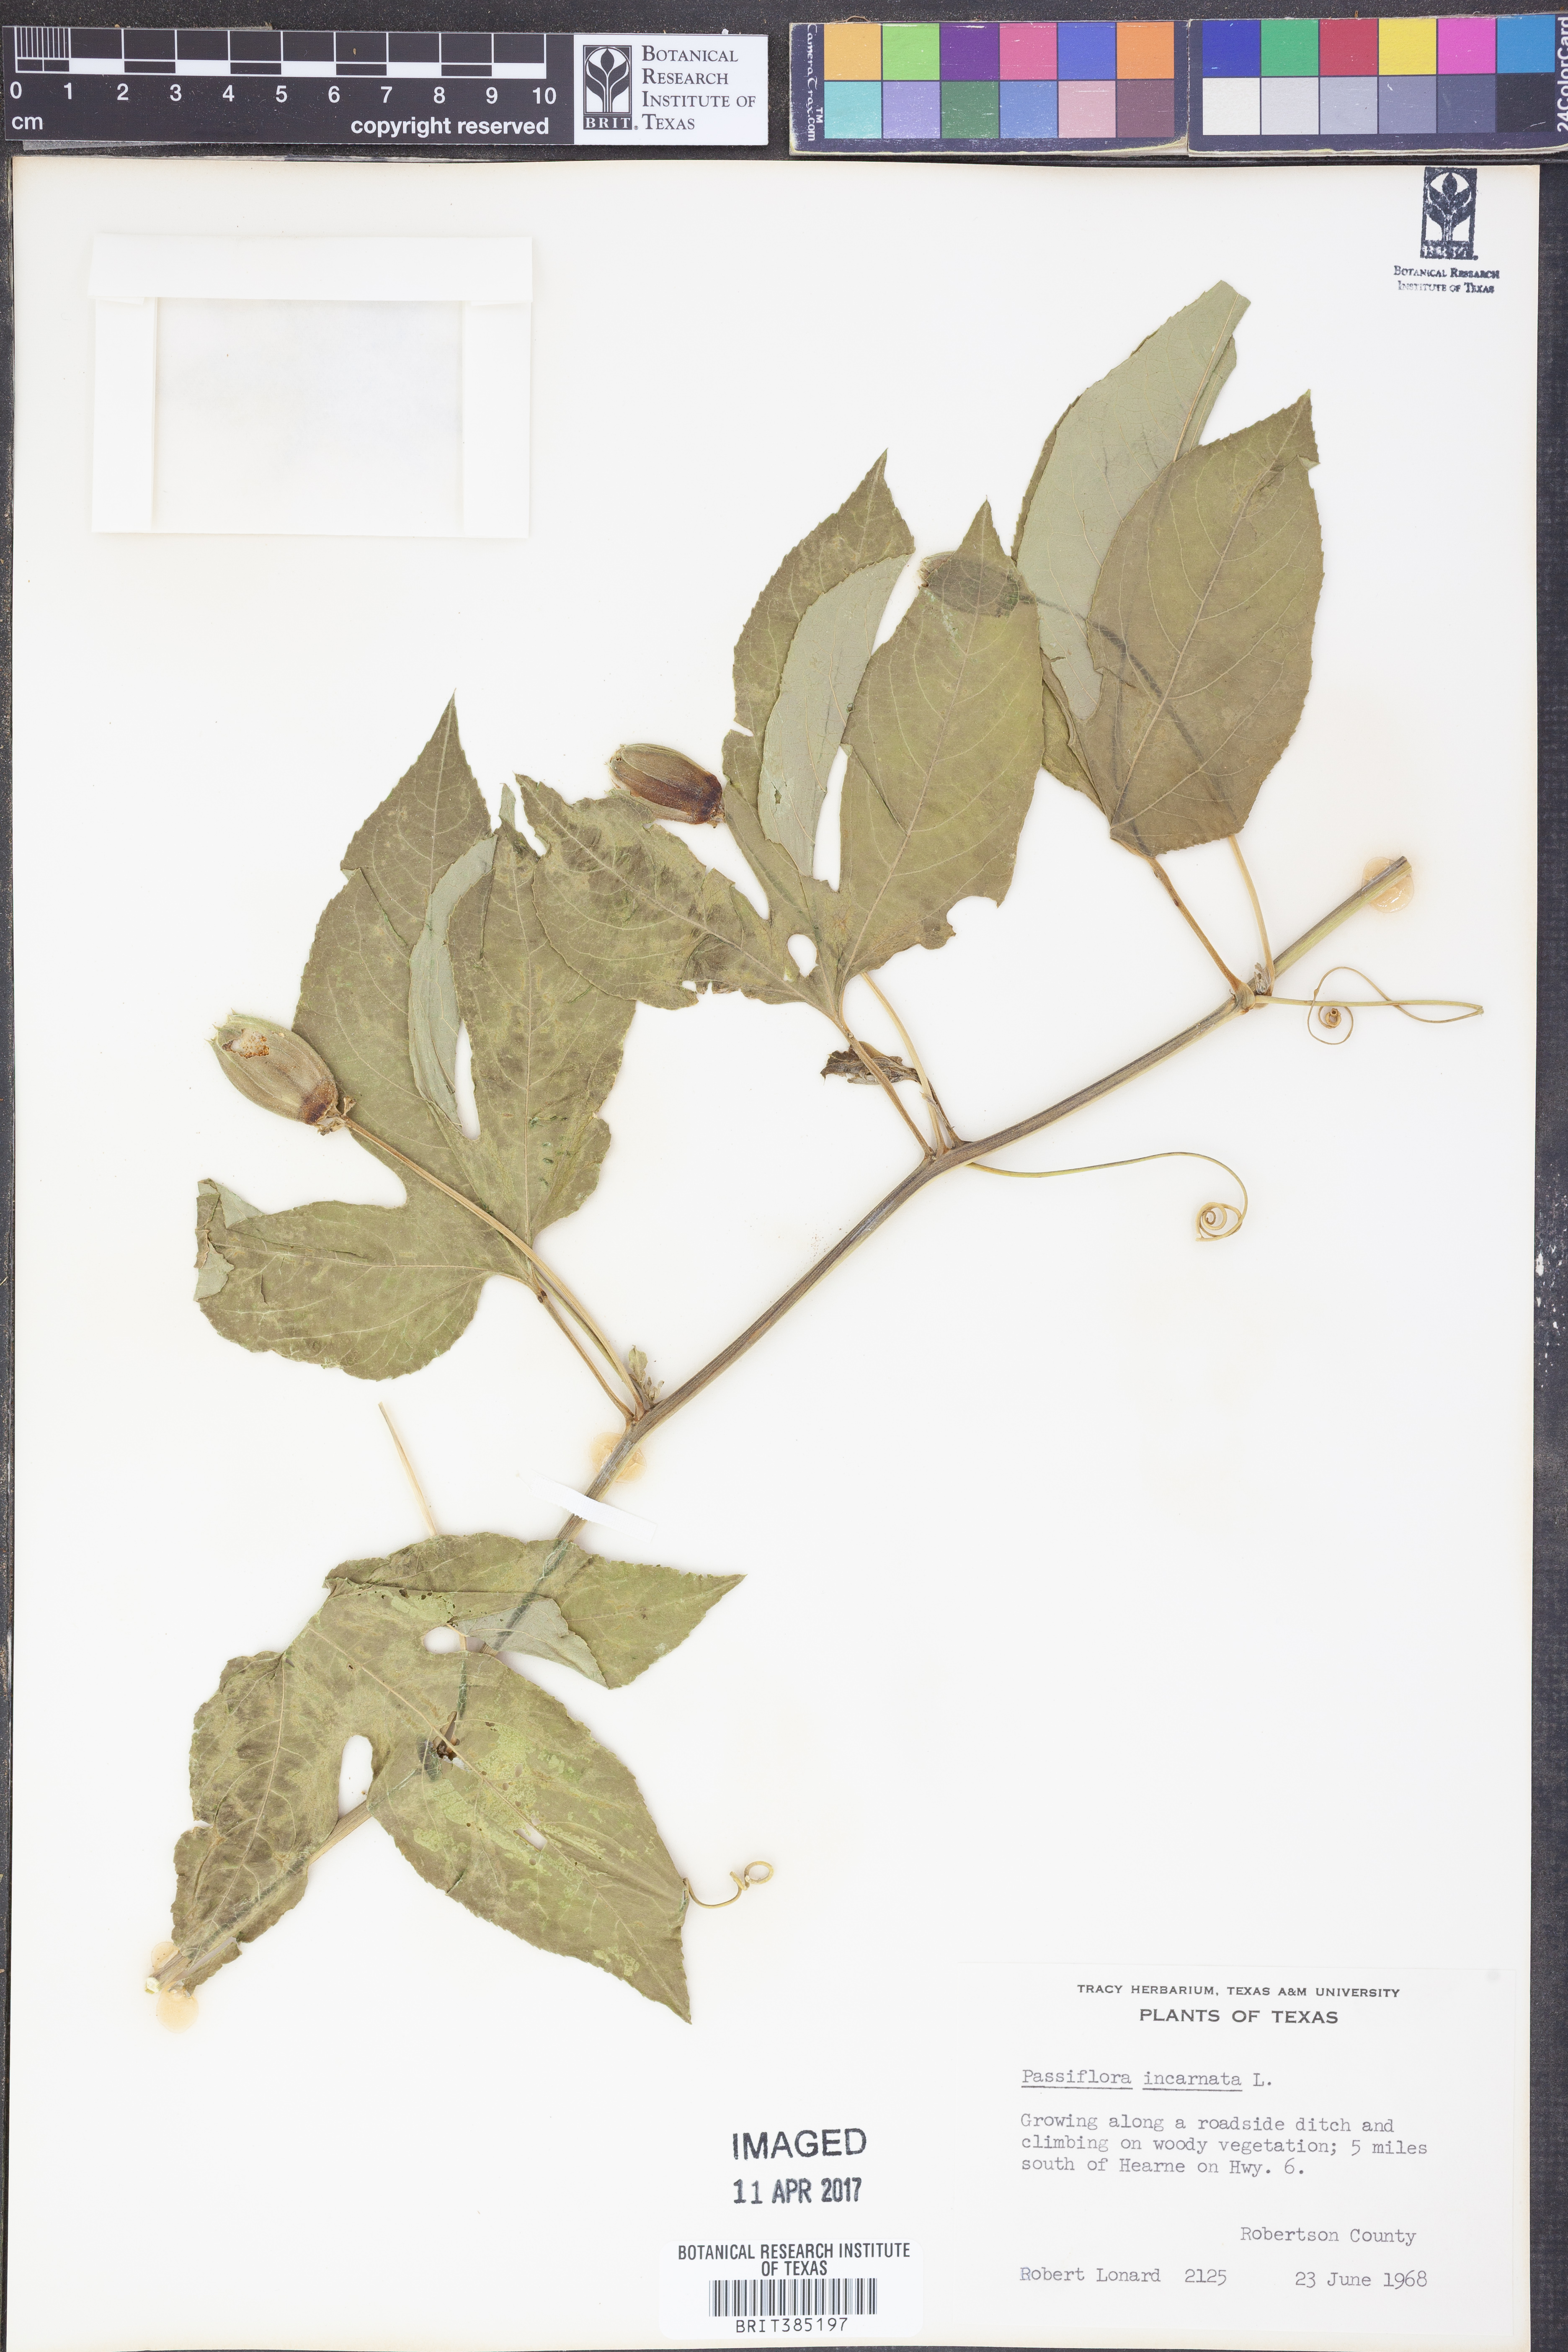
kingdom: Plantae
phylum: Tracheophyta
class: Magnoliopsida
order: Malpighiales
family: Passifloraceae
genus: Passiflora
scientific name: Passiflora incarnata
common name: Apricot-vine
